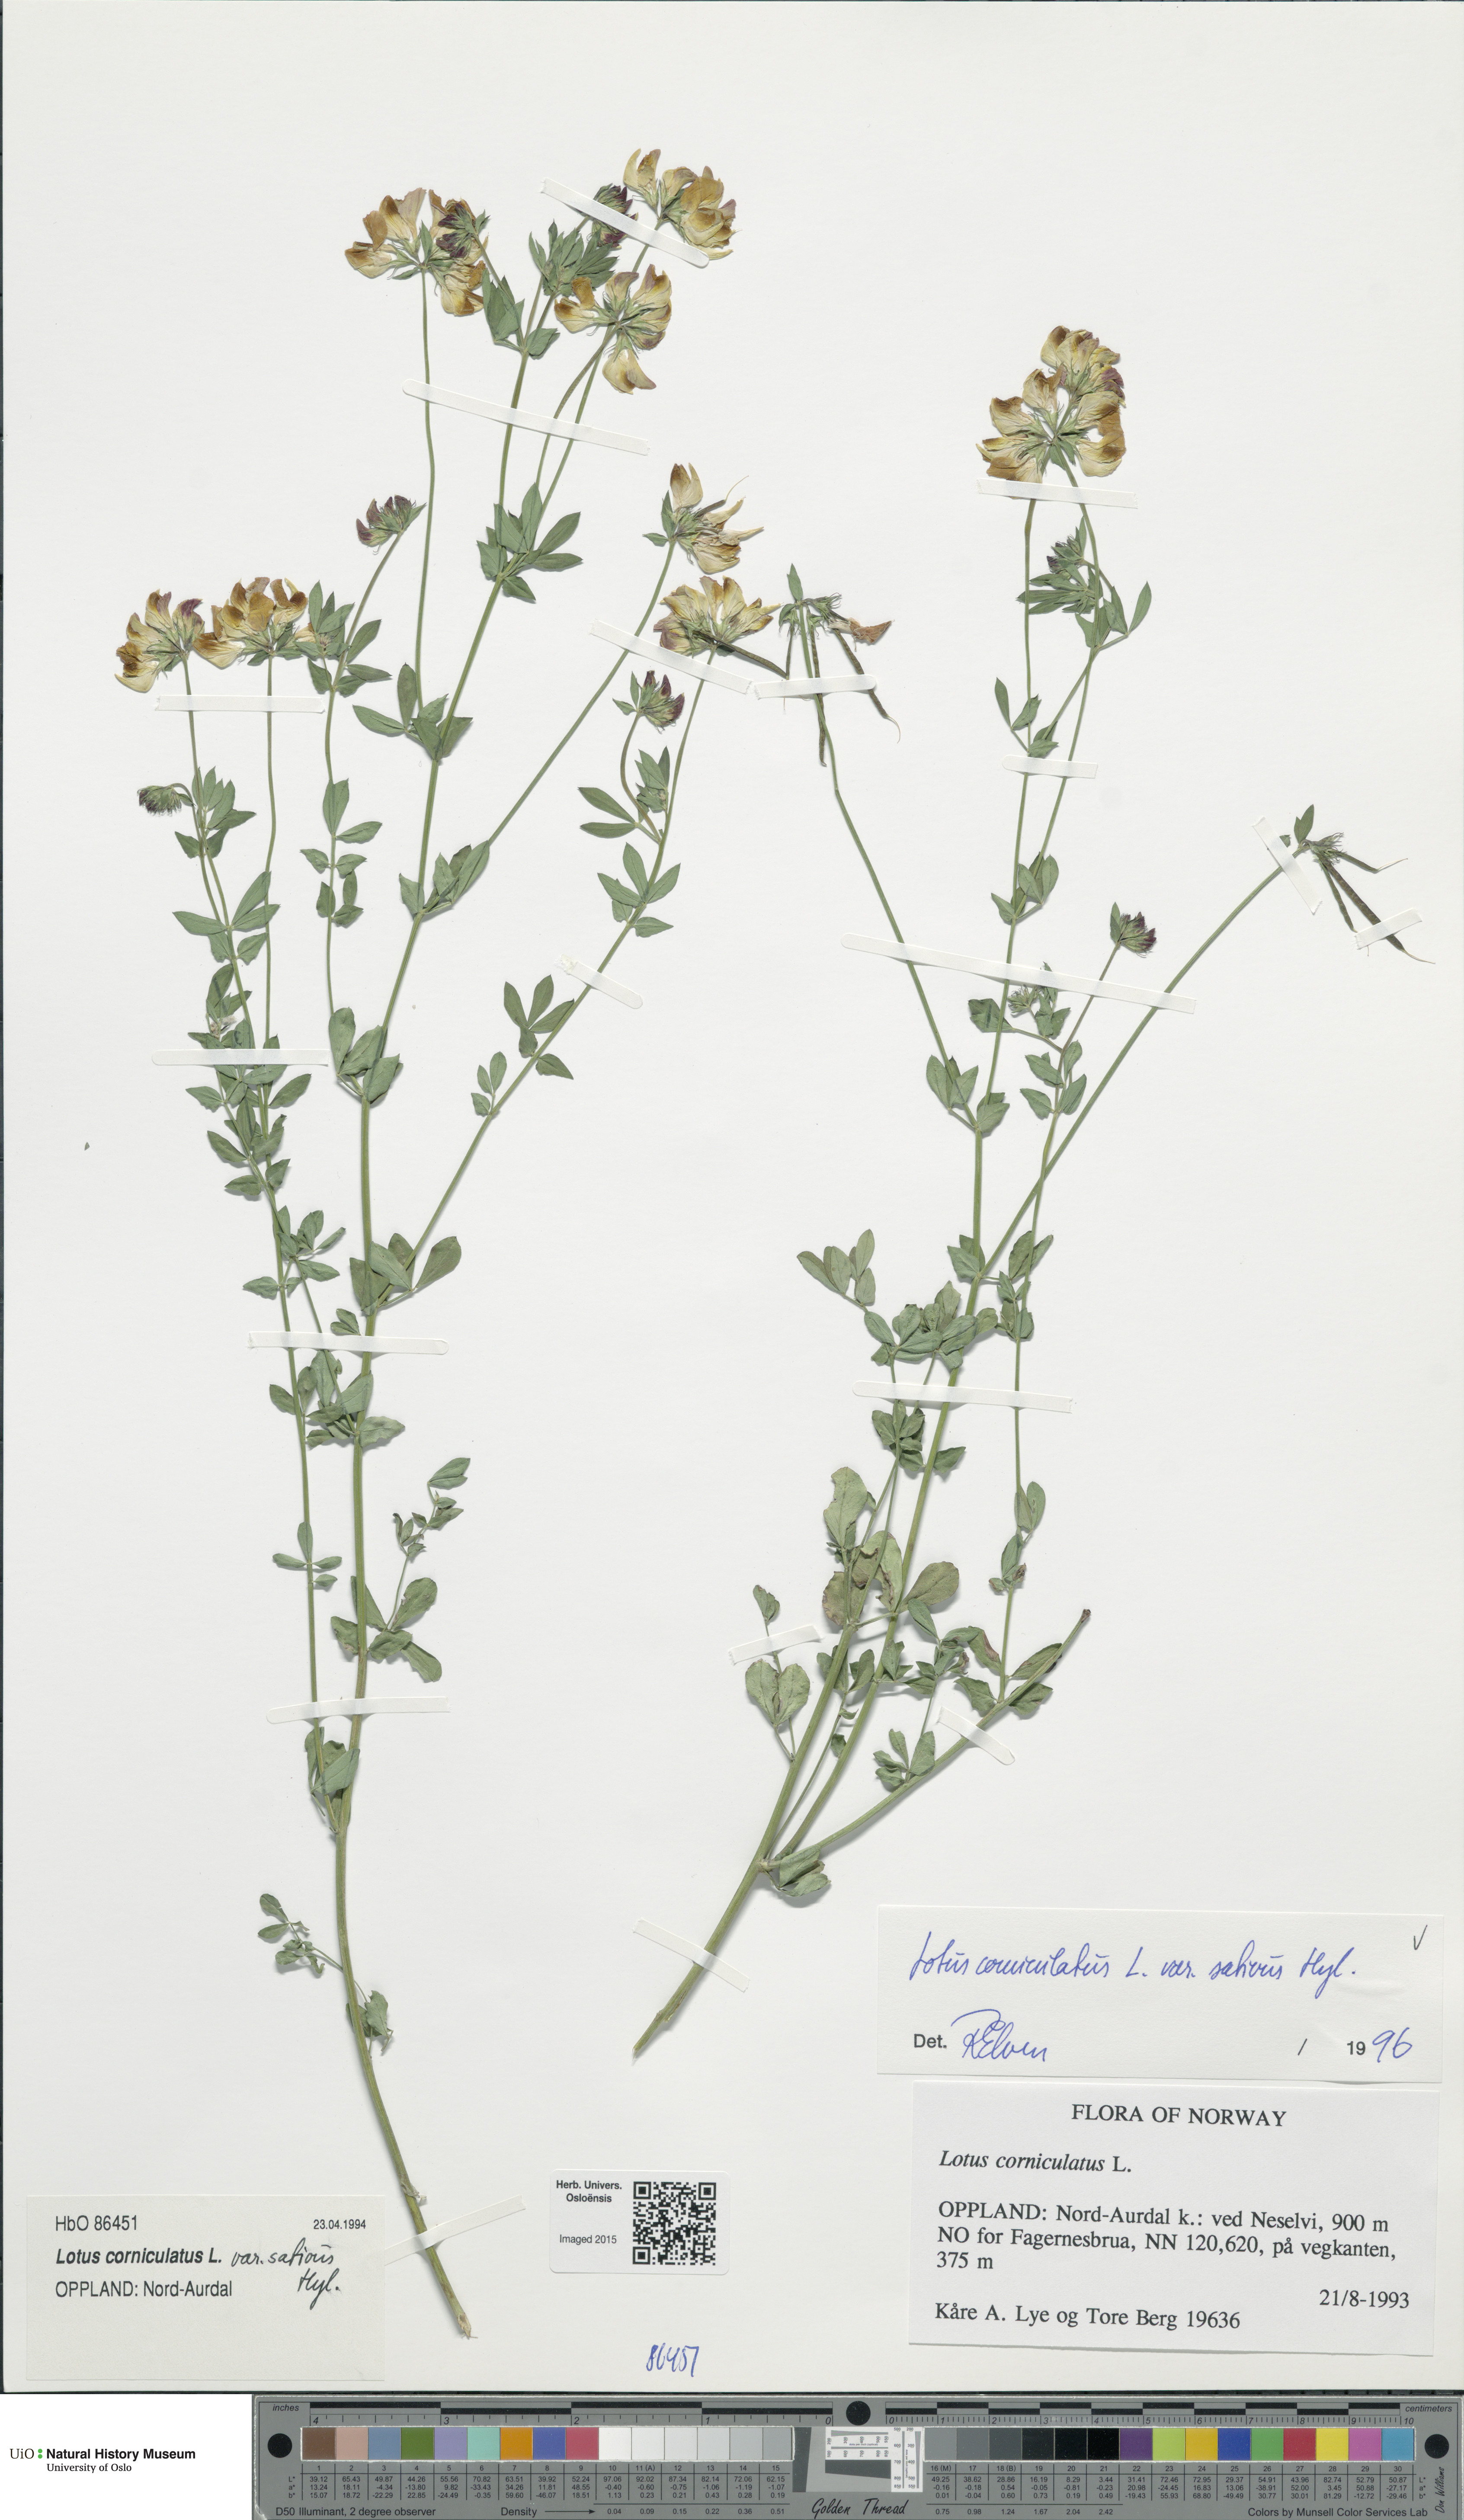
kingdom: Plantae
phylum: Tracheophyta
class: Magnoliopsida
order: Fabales
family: Fabaceae
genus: Lotus
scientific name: Lotus corniculatus
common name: Common bird's-foot-trefoil
